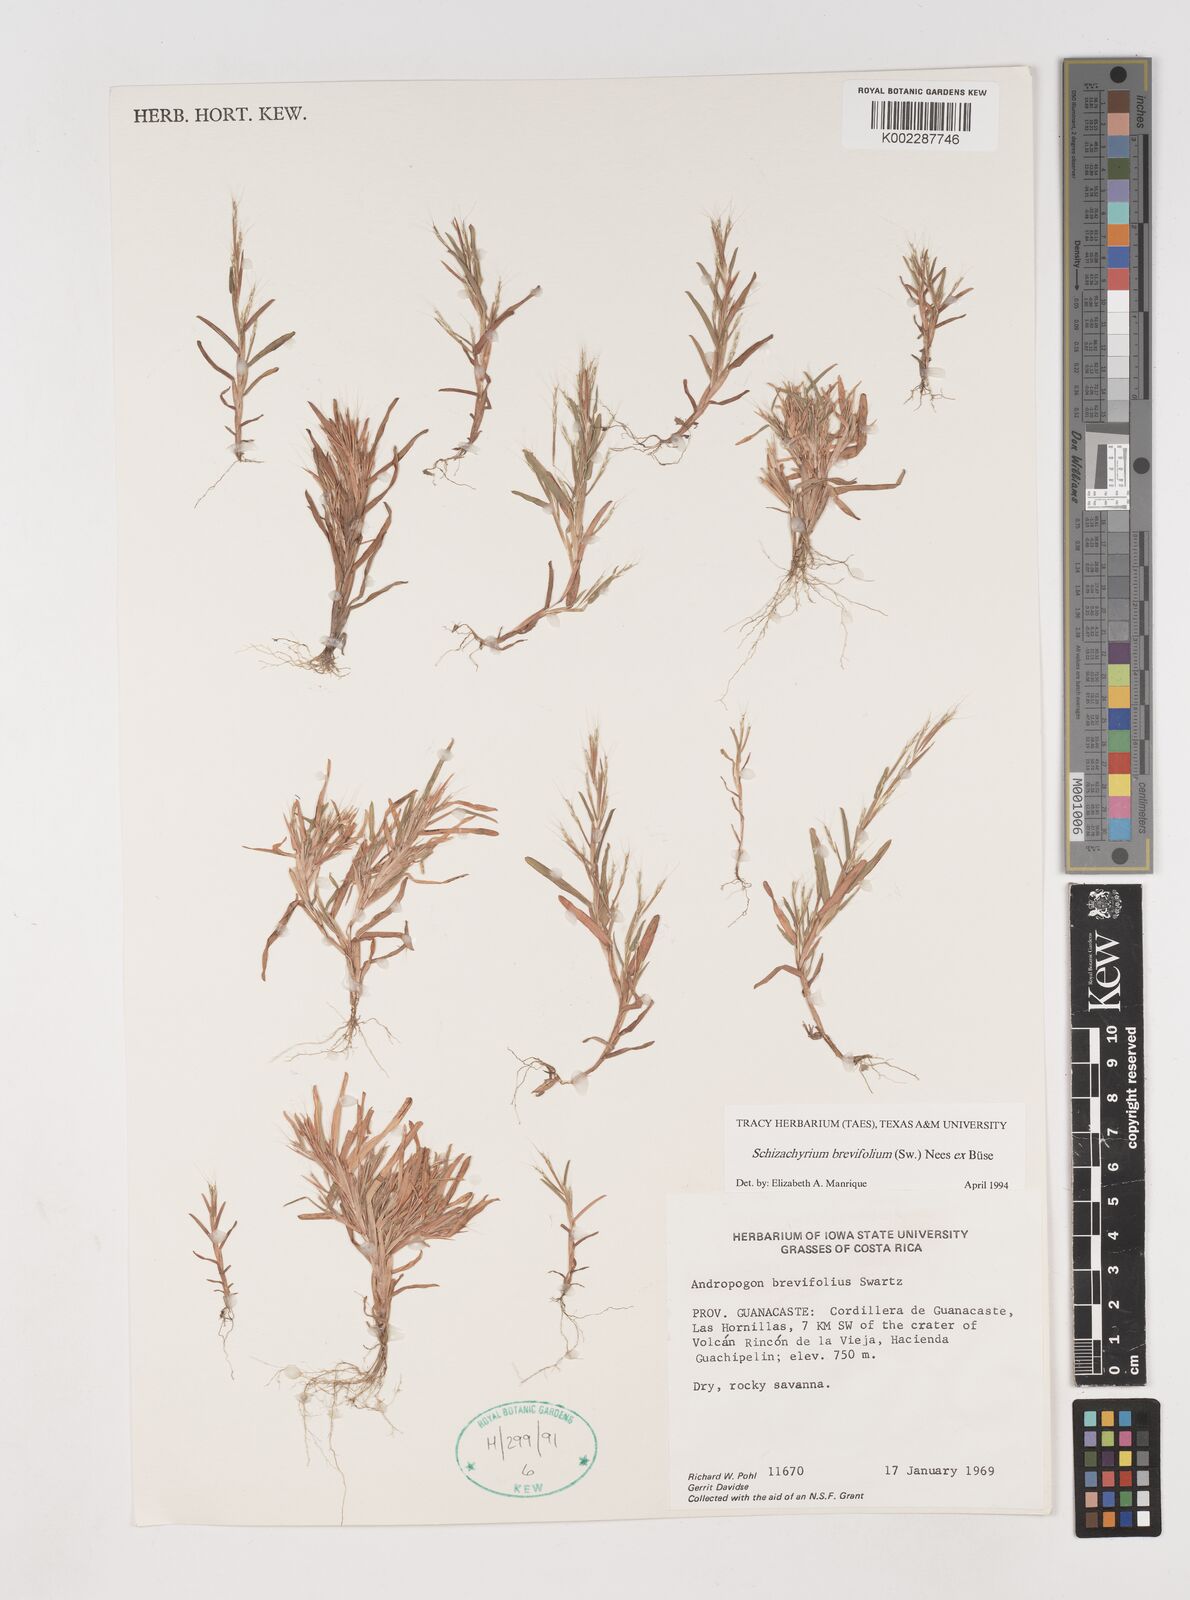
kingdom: Plantae
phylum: Tracheophyta
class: Liliopsida
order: Poales
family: Poaceae
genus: Schizachyrium
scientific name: Schizachyrium brevifolium
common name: Serillo dulce
